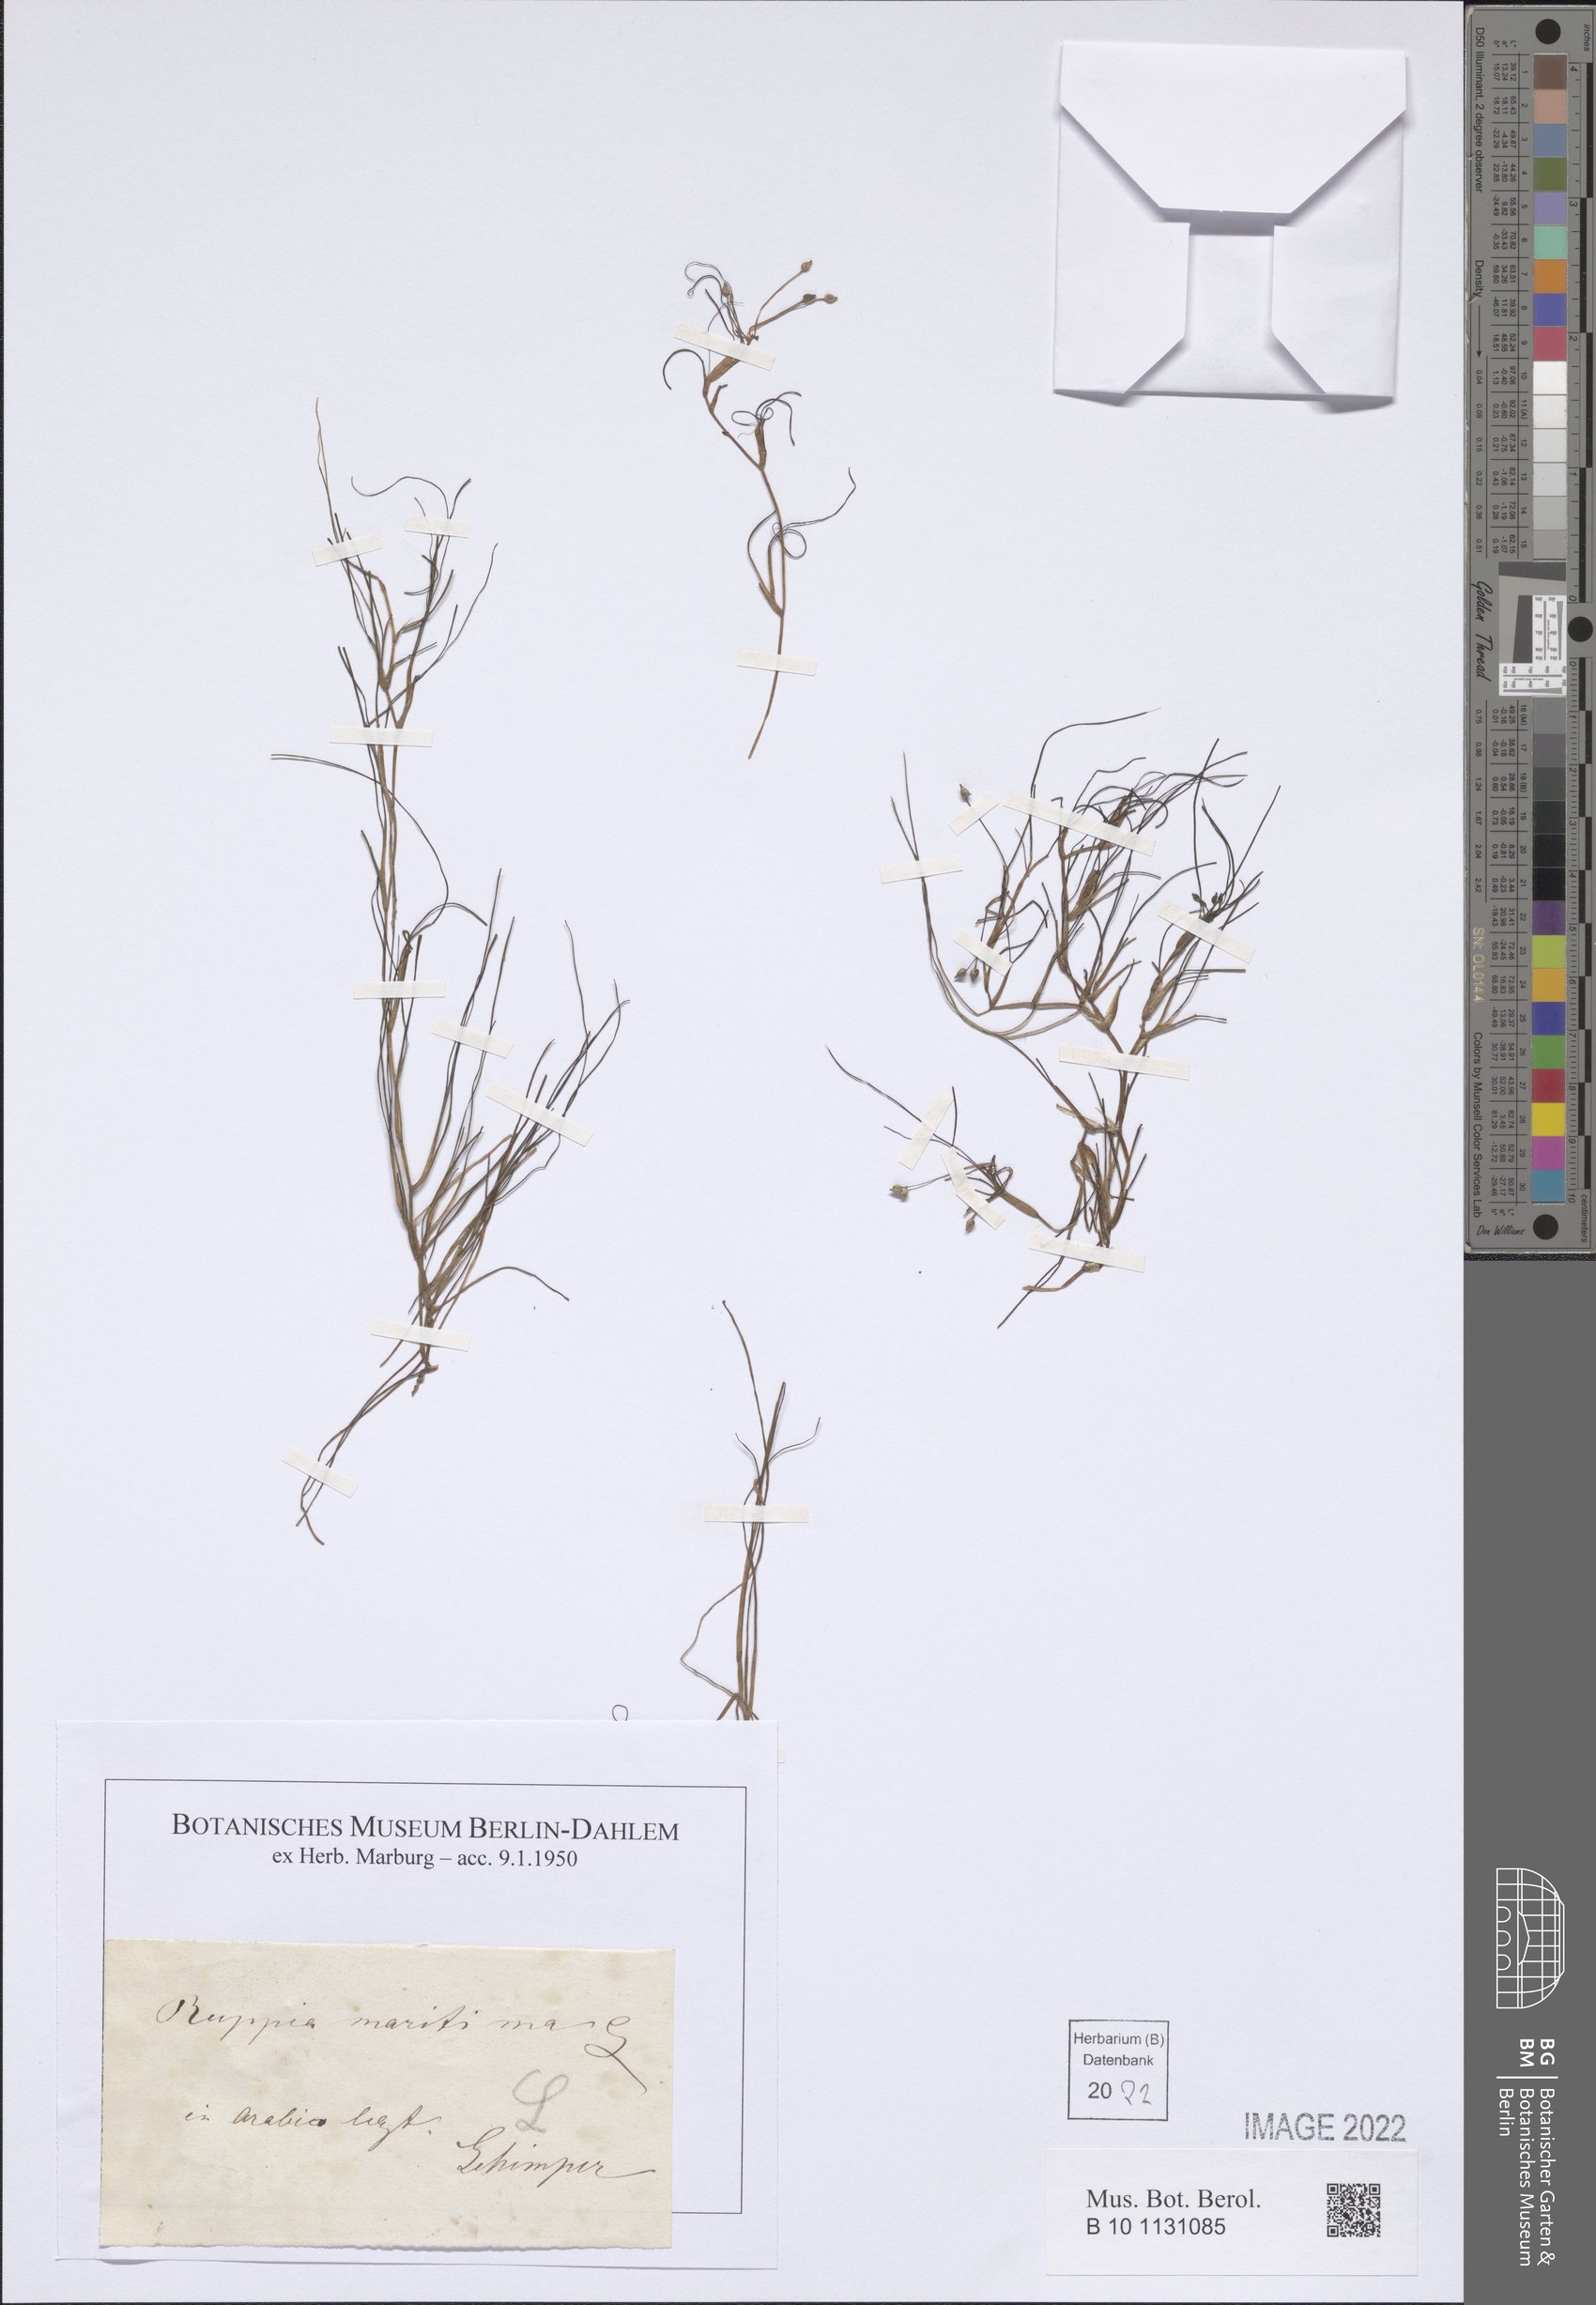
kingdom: Plantae
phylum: Tracheophyta
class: Liliopsida
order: Alismatales
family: Ruppiaceae
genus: Ruppia
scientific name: Ruppia maritima
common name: Beaked tasselweed
